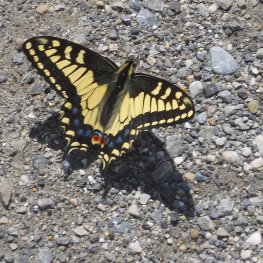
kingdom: Animalia
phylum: Arthropoda
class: Insecta
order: Lepidoptera
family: Papilionidae
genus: Papilio
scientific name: Papilio zelicaon
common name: Anise Swallowtail
